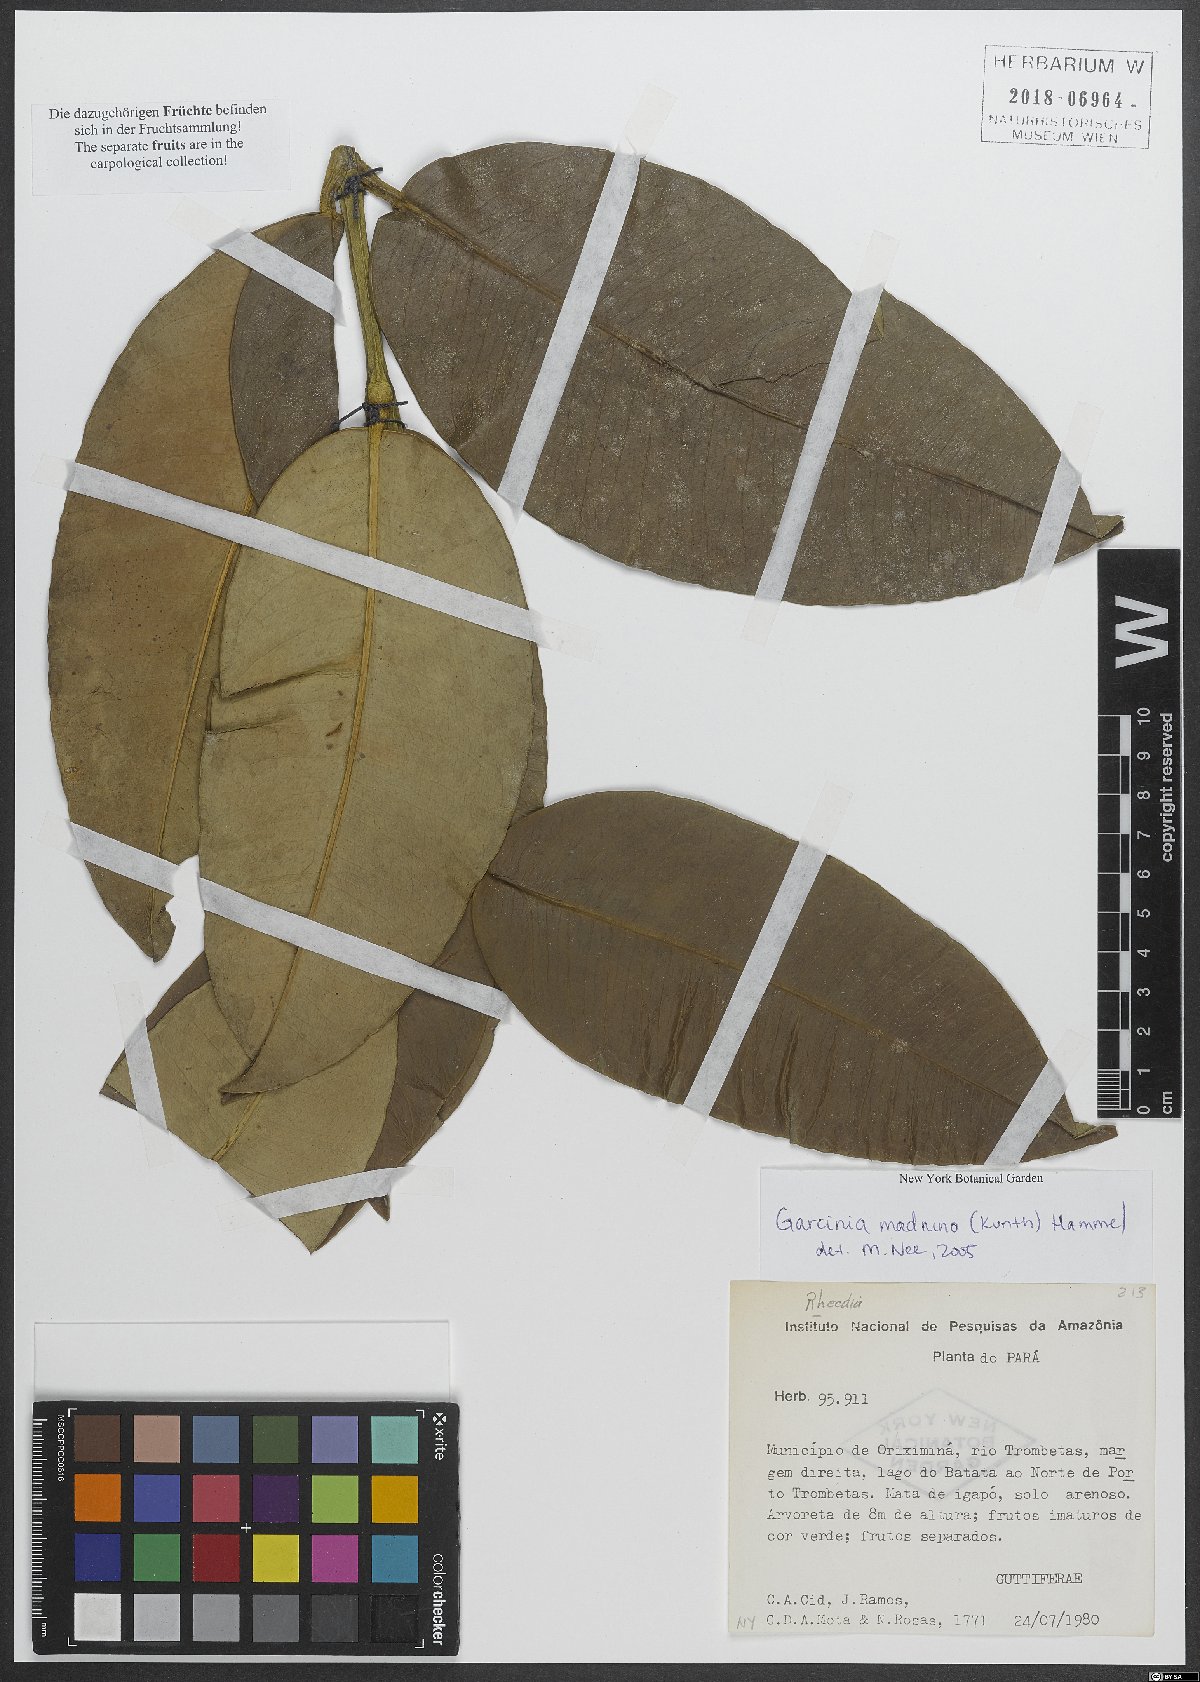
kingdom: Plantae
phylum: Tracheophyta
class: Magnoliopsida
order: Malpighiales
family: Clusiaceae
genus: Garcinia
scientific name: Garcinia madruno
